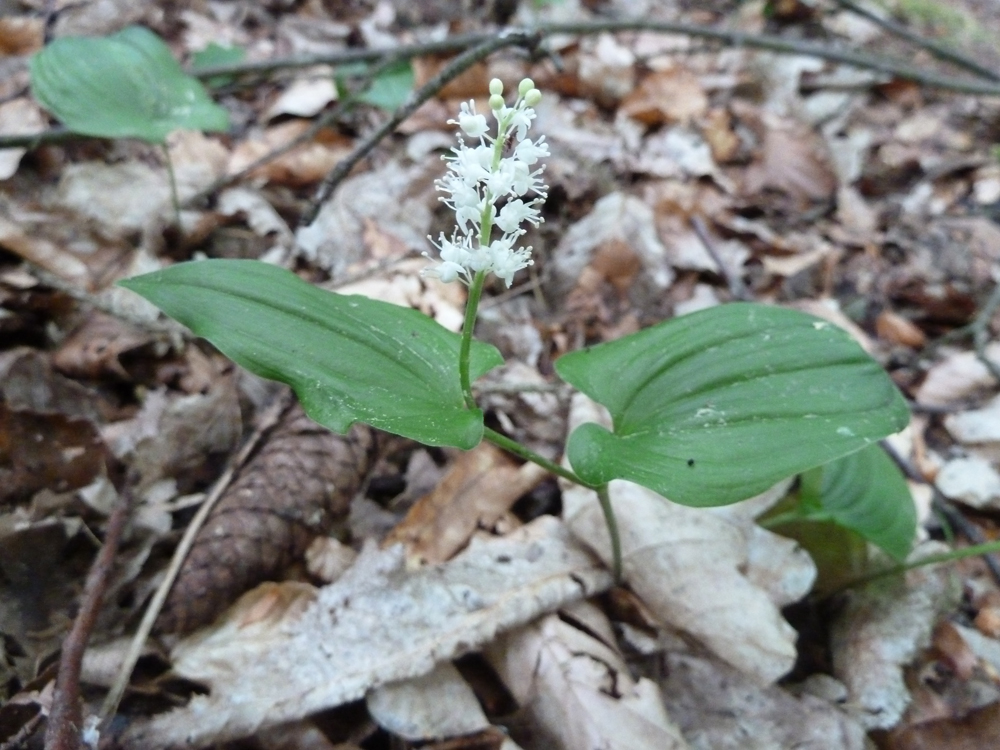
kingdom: Plantae
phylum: Tracheophyta
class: Liliopsida
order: Asparagales
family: Asparagaceae
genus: Maianthemum
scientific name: Maianthemum bifolium
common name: May lily
